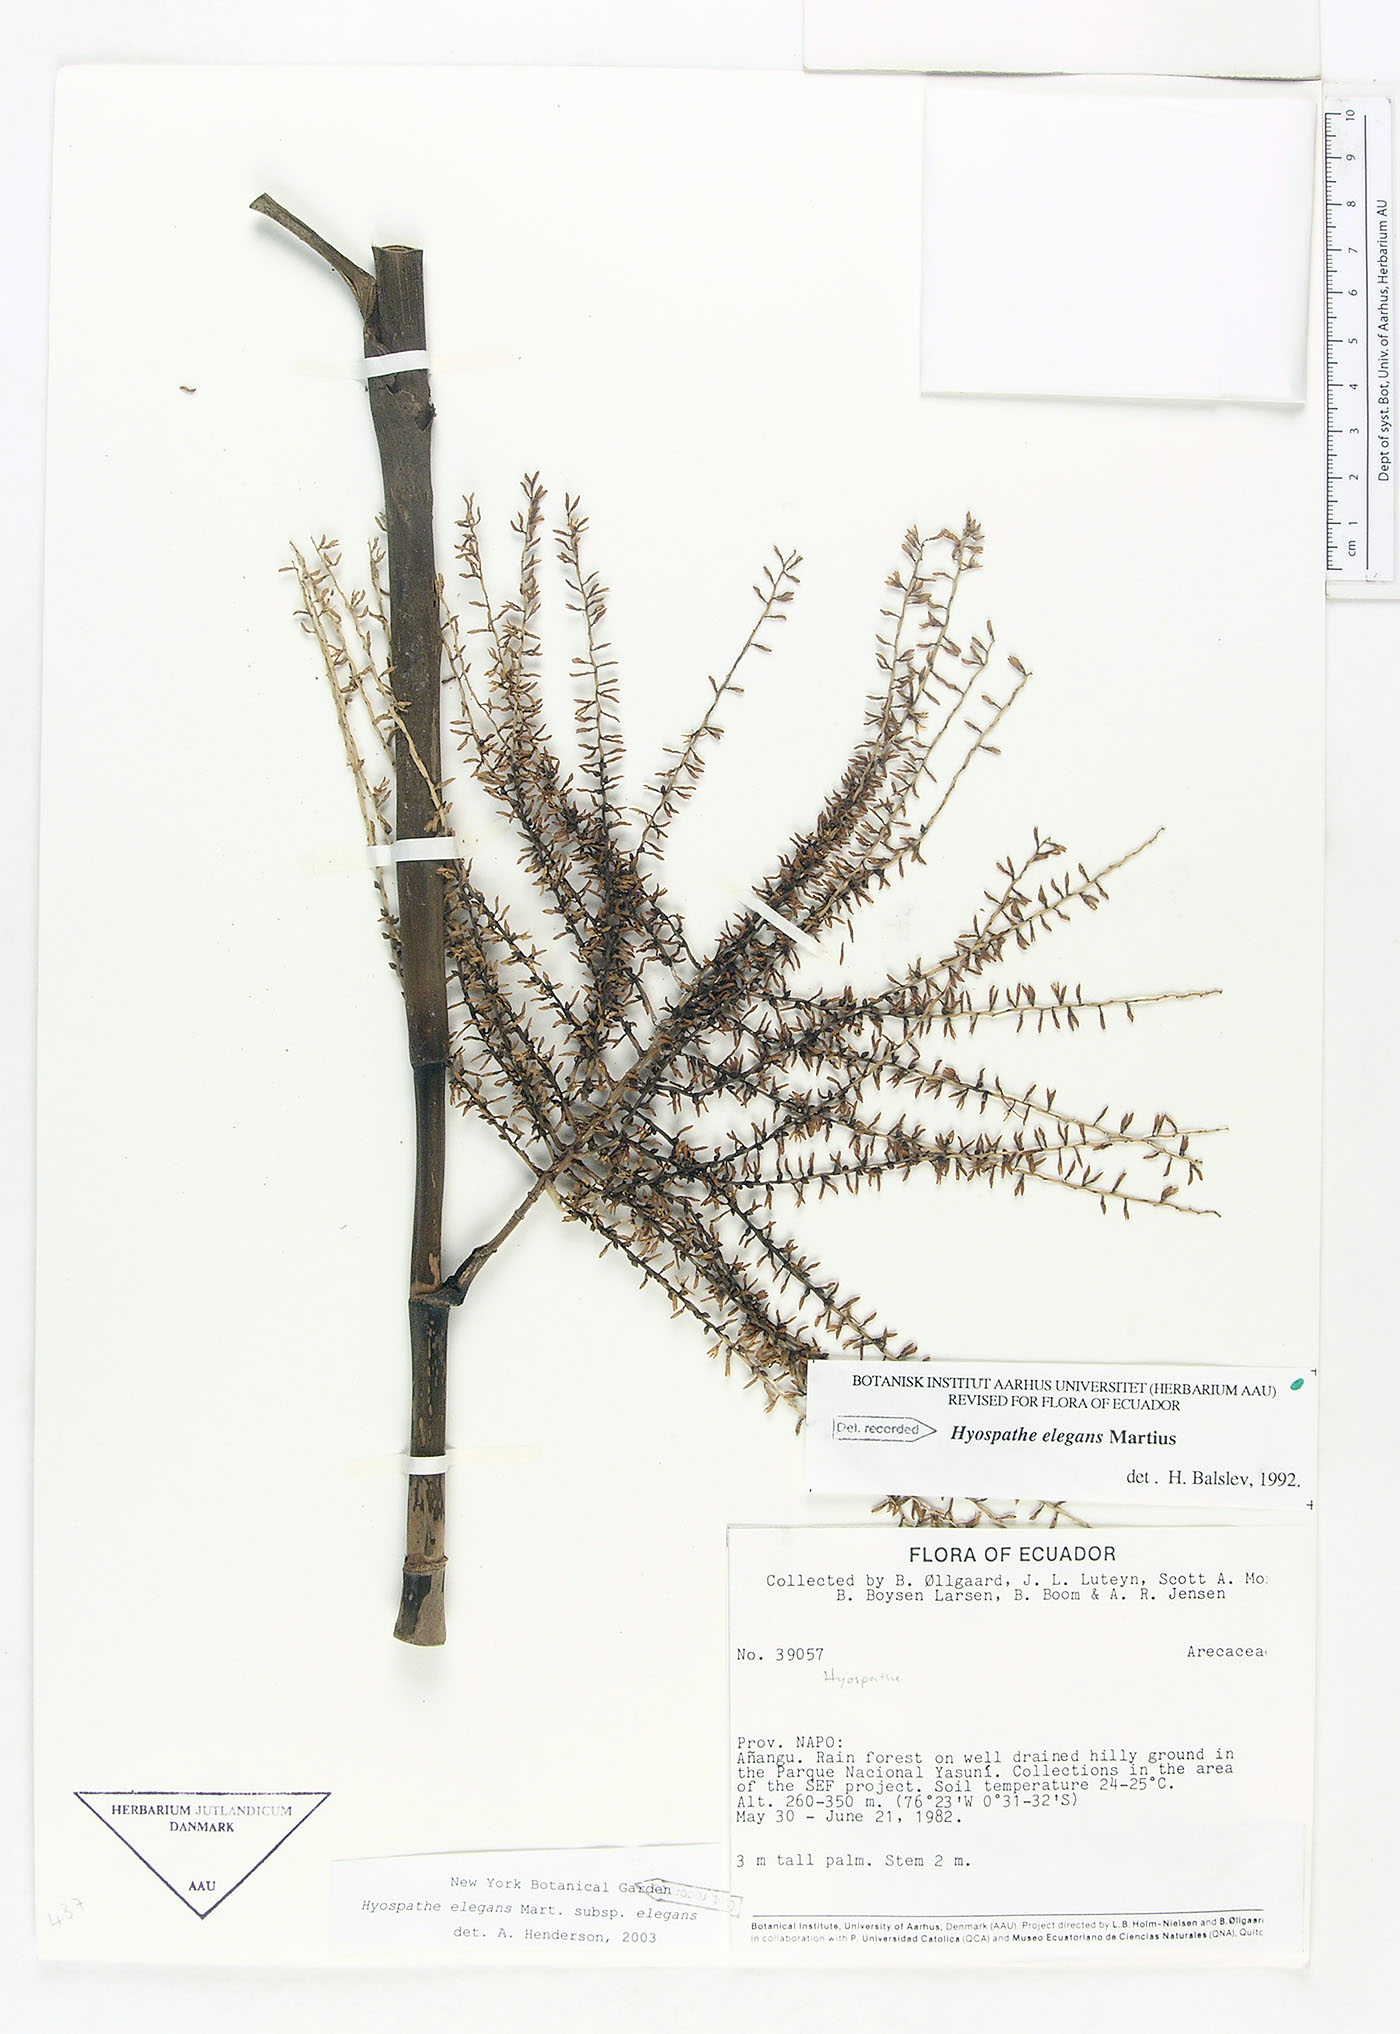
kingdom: Plantae
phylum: Tracheophyta
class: Liliopsida
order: Arecales
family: Arecaceae
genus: Hyospathe
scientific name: Hyospathe elegans
